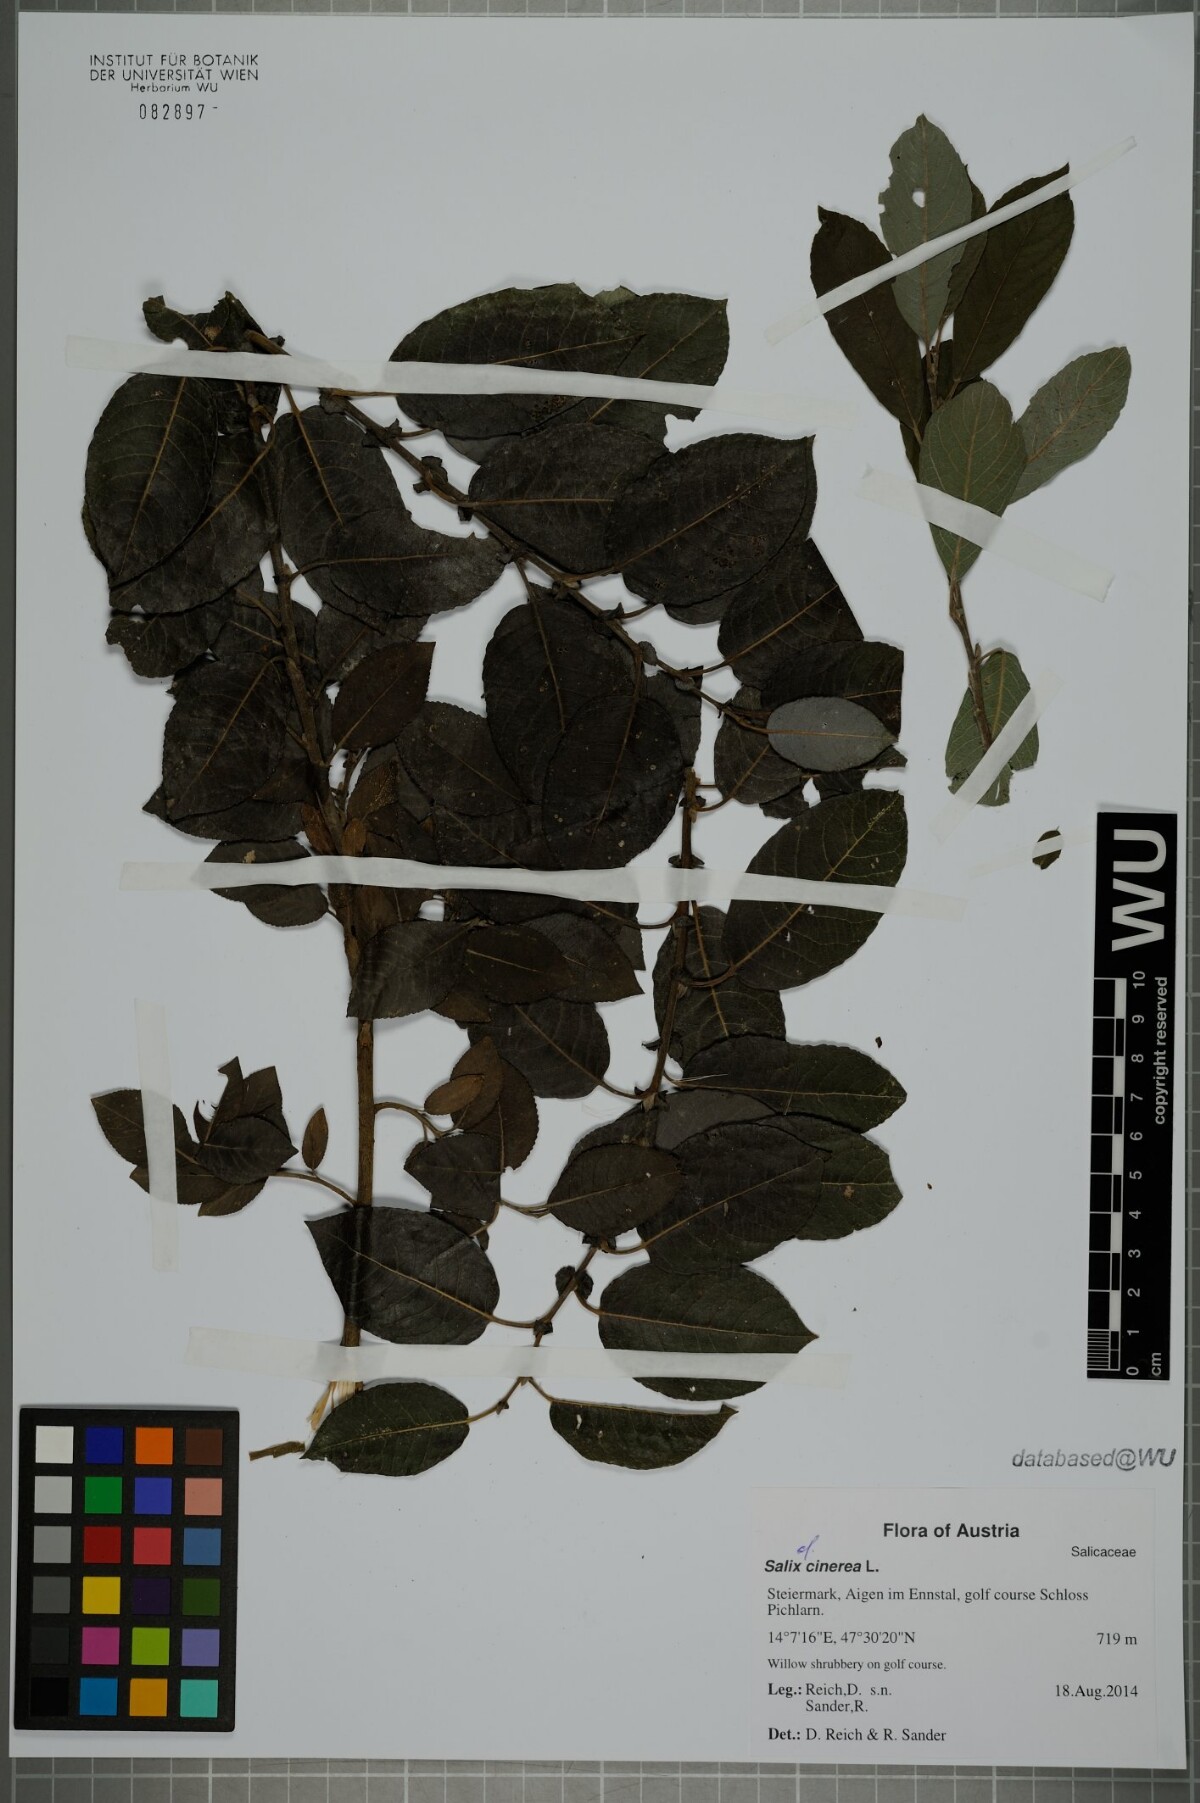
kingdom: Plantae
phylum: Tracheophyta
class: Magnoliopsida
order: Malpighiales
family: Salicaceae
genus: Salix
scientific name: Salix cinerea
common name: Common sallow
